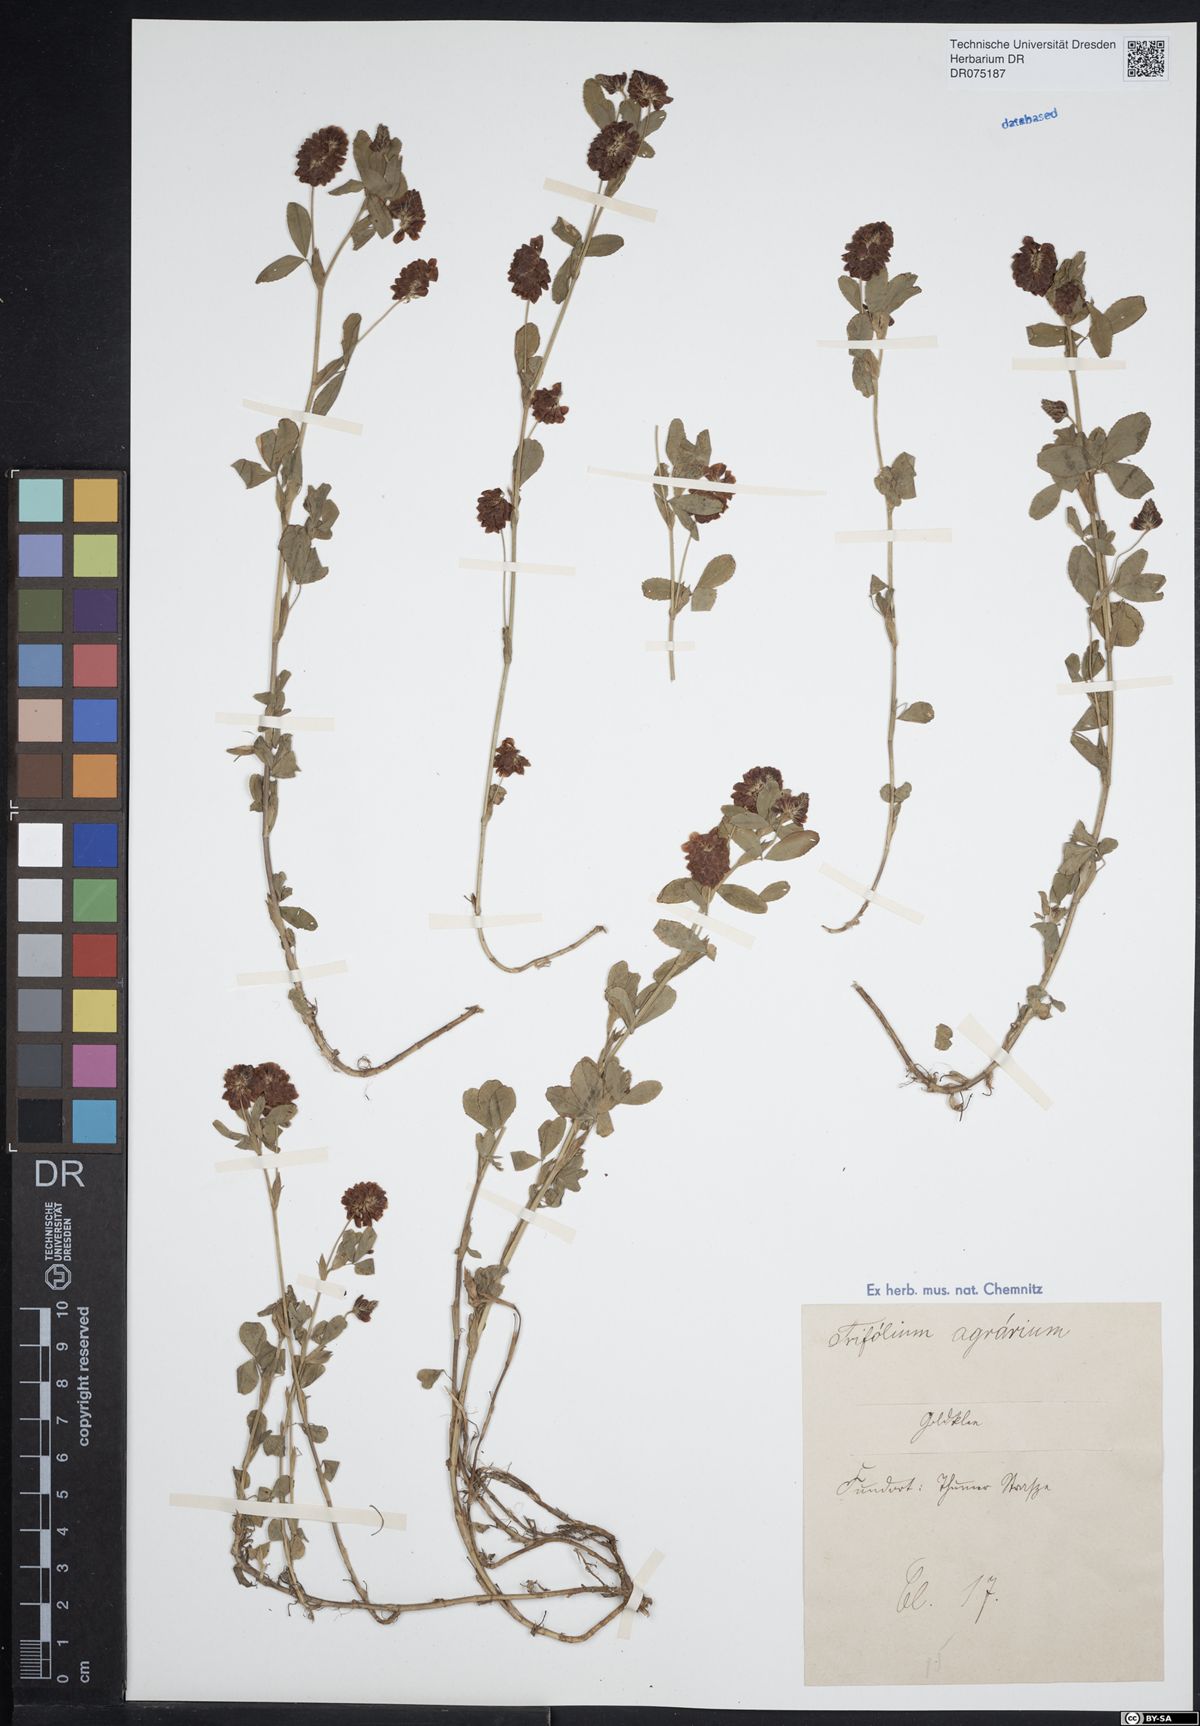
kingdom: Plantae
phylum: Tracheophyta
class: Magnoliopsida
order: Fabales
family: Fabaceae
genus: Trifolium
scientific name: Trifolium aureum
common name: Golden clover
